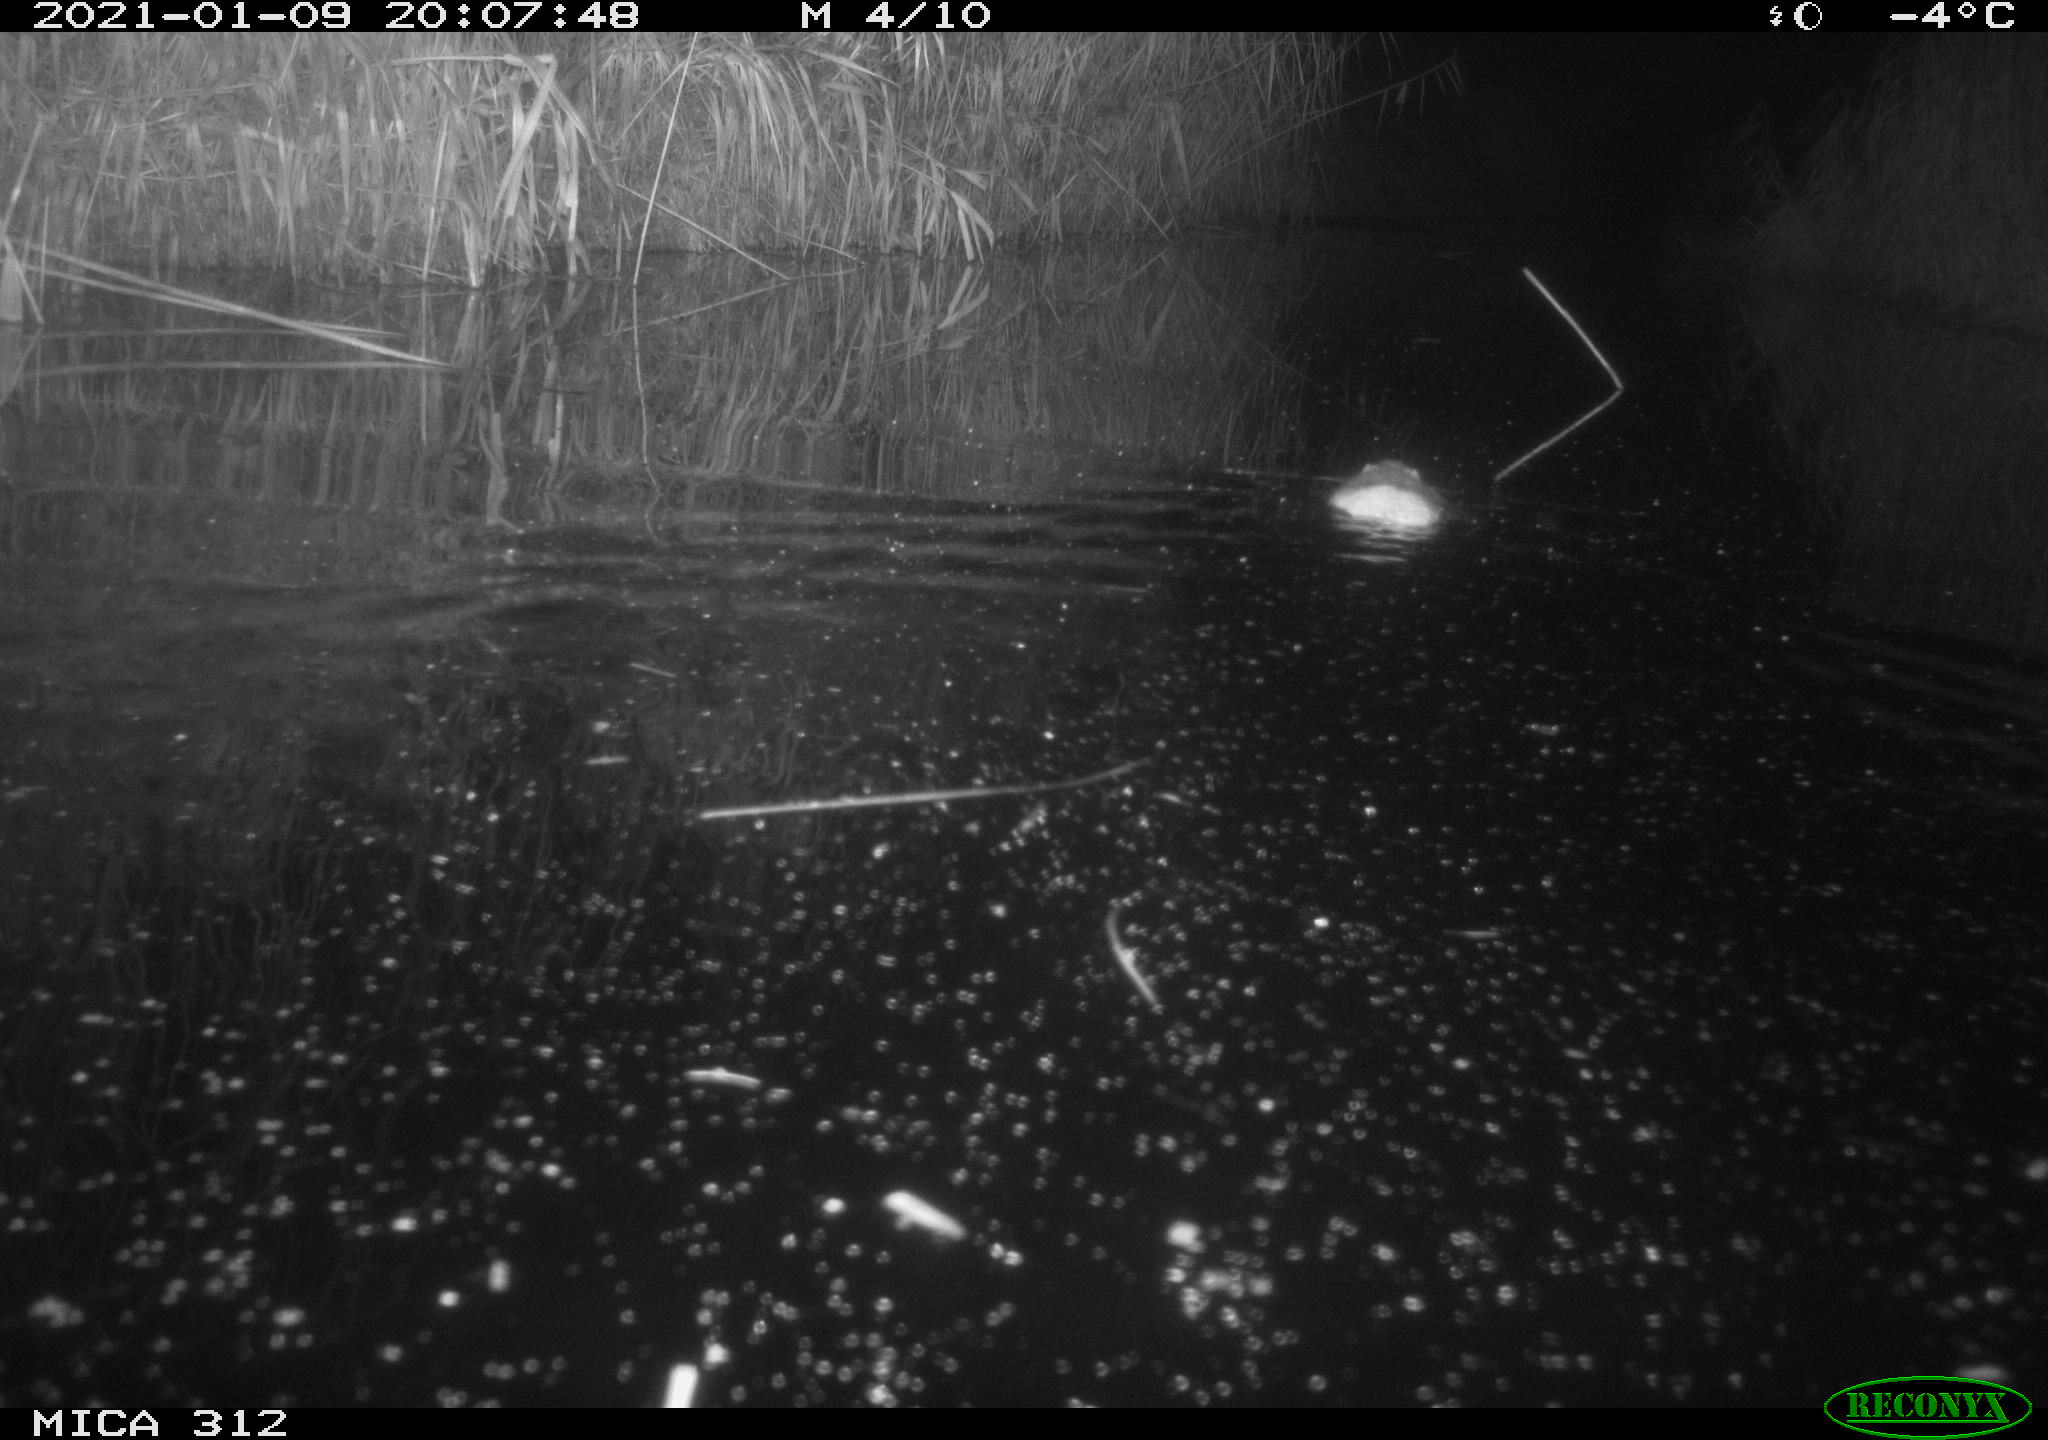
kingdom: Animalia
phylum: Chordata
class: Mammalia
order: Rodentia
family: Muridae
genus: Rattus
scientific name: Rattus norvegicus
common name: Brown rat
